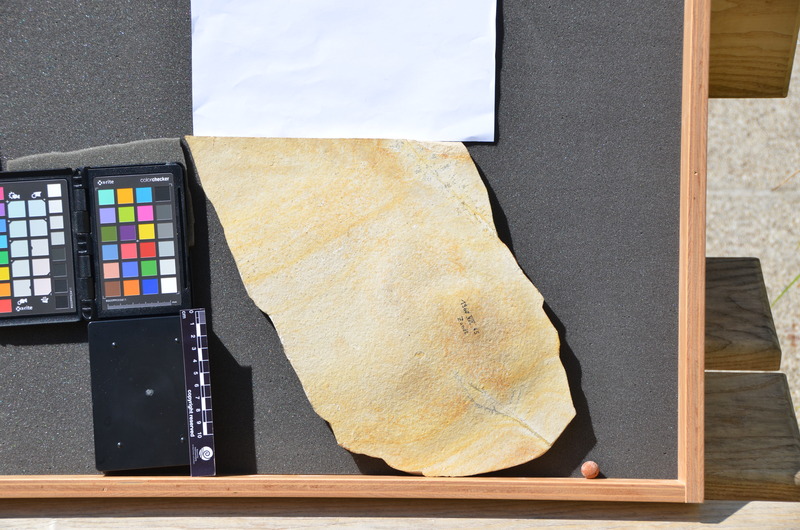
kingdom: Animalia
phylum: Chordata
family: Gyrodontidae
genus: Gyrodus
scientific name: Gyrodus hexagonus
